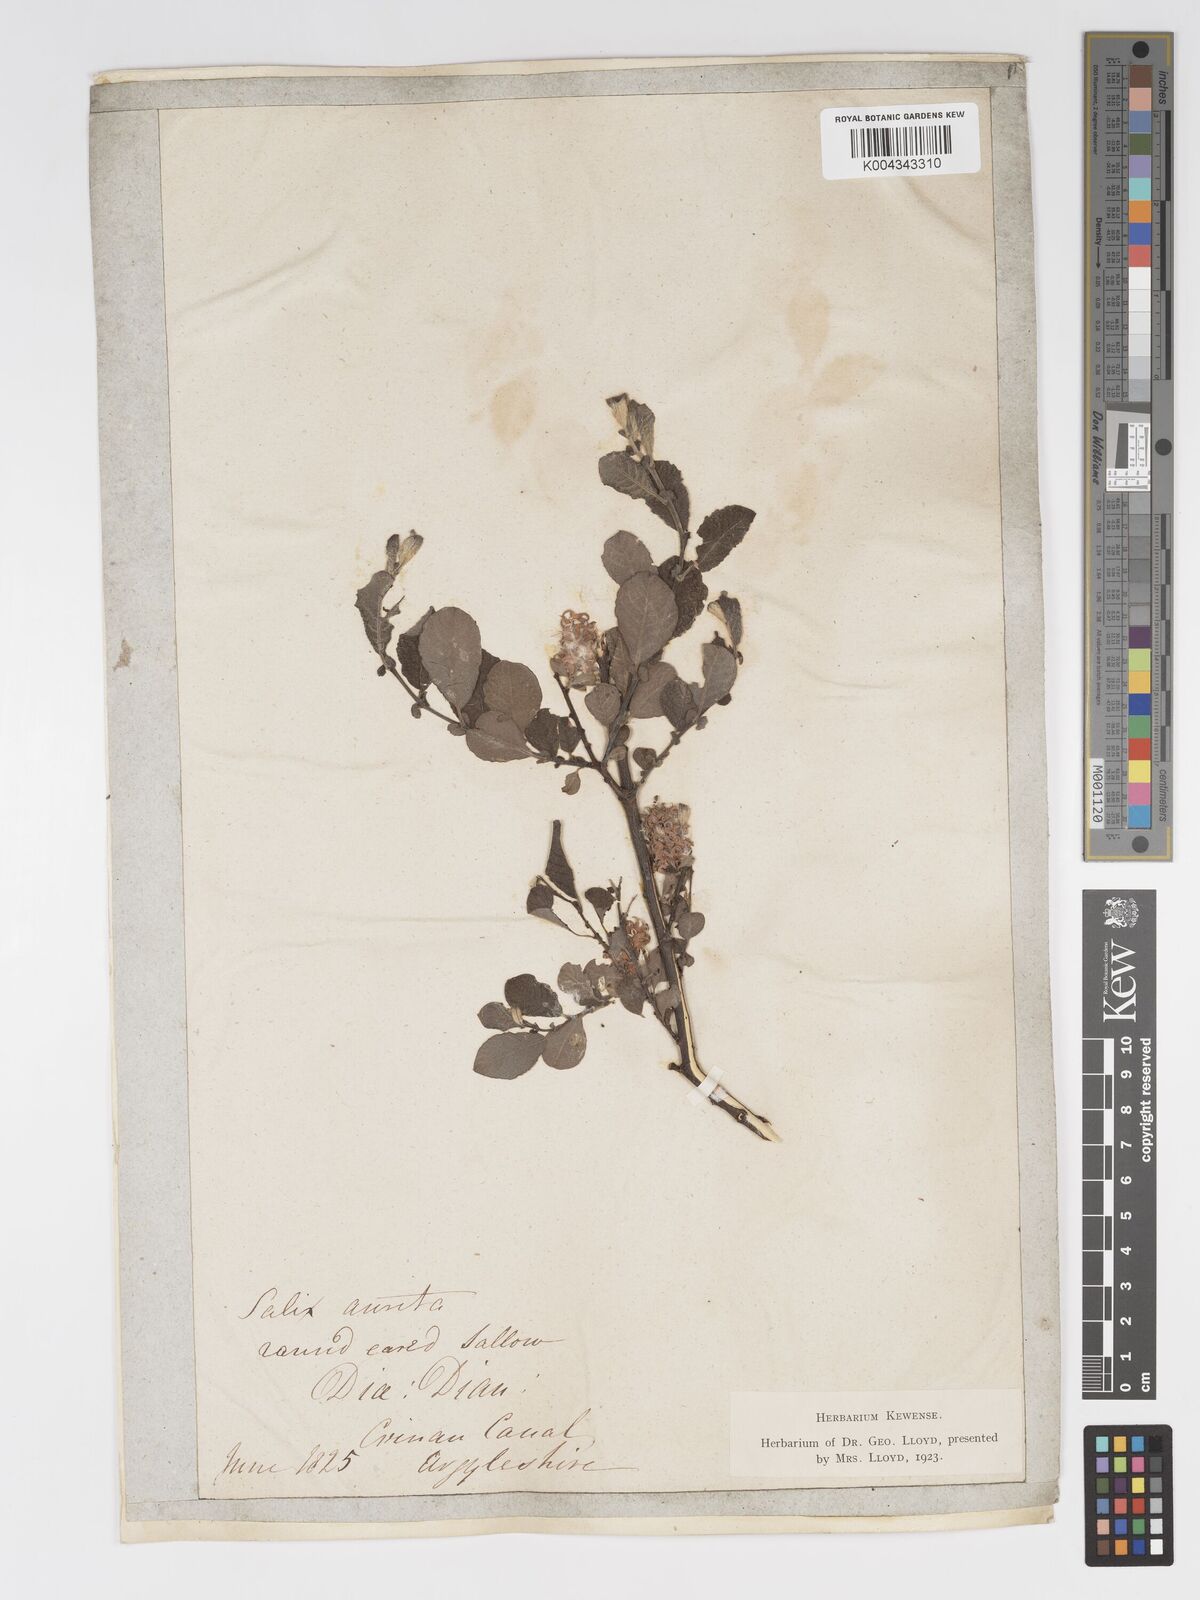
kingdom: Plantae
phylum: Tracheophyta
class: Magnoliopsida
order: Malpighiales
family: Salicaceae
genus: Salix
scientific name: Salix aurita
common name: Eared willow
